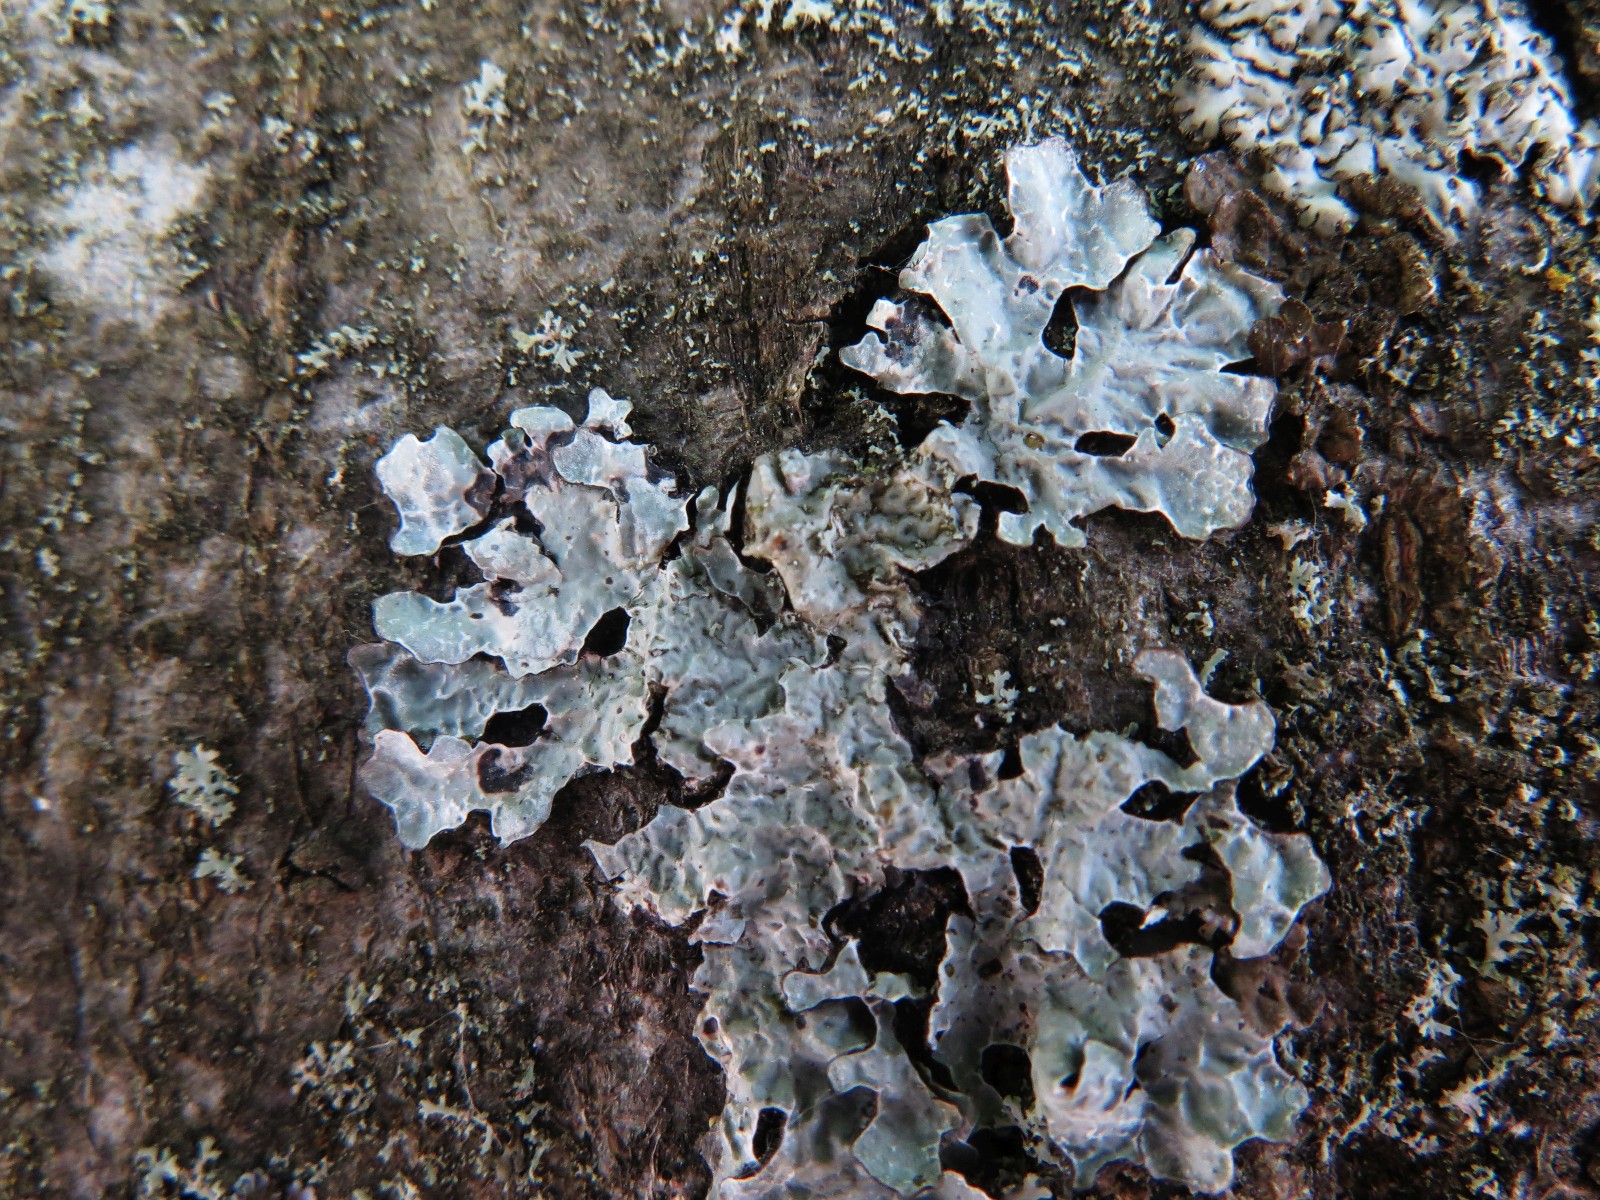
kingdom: Fungi
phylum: Ascomycota
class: Lecanoromycetes
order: Lecanorales
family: Parmeliaceae
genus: Parmelia
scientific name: Parmelia sulcata
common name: rynket skållav
